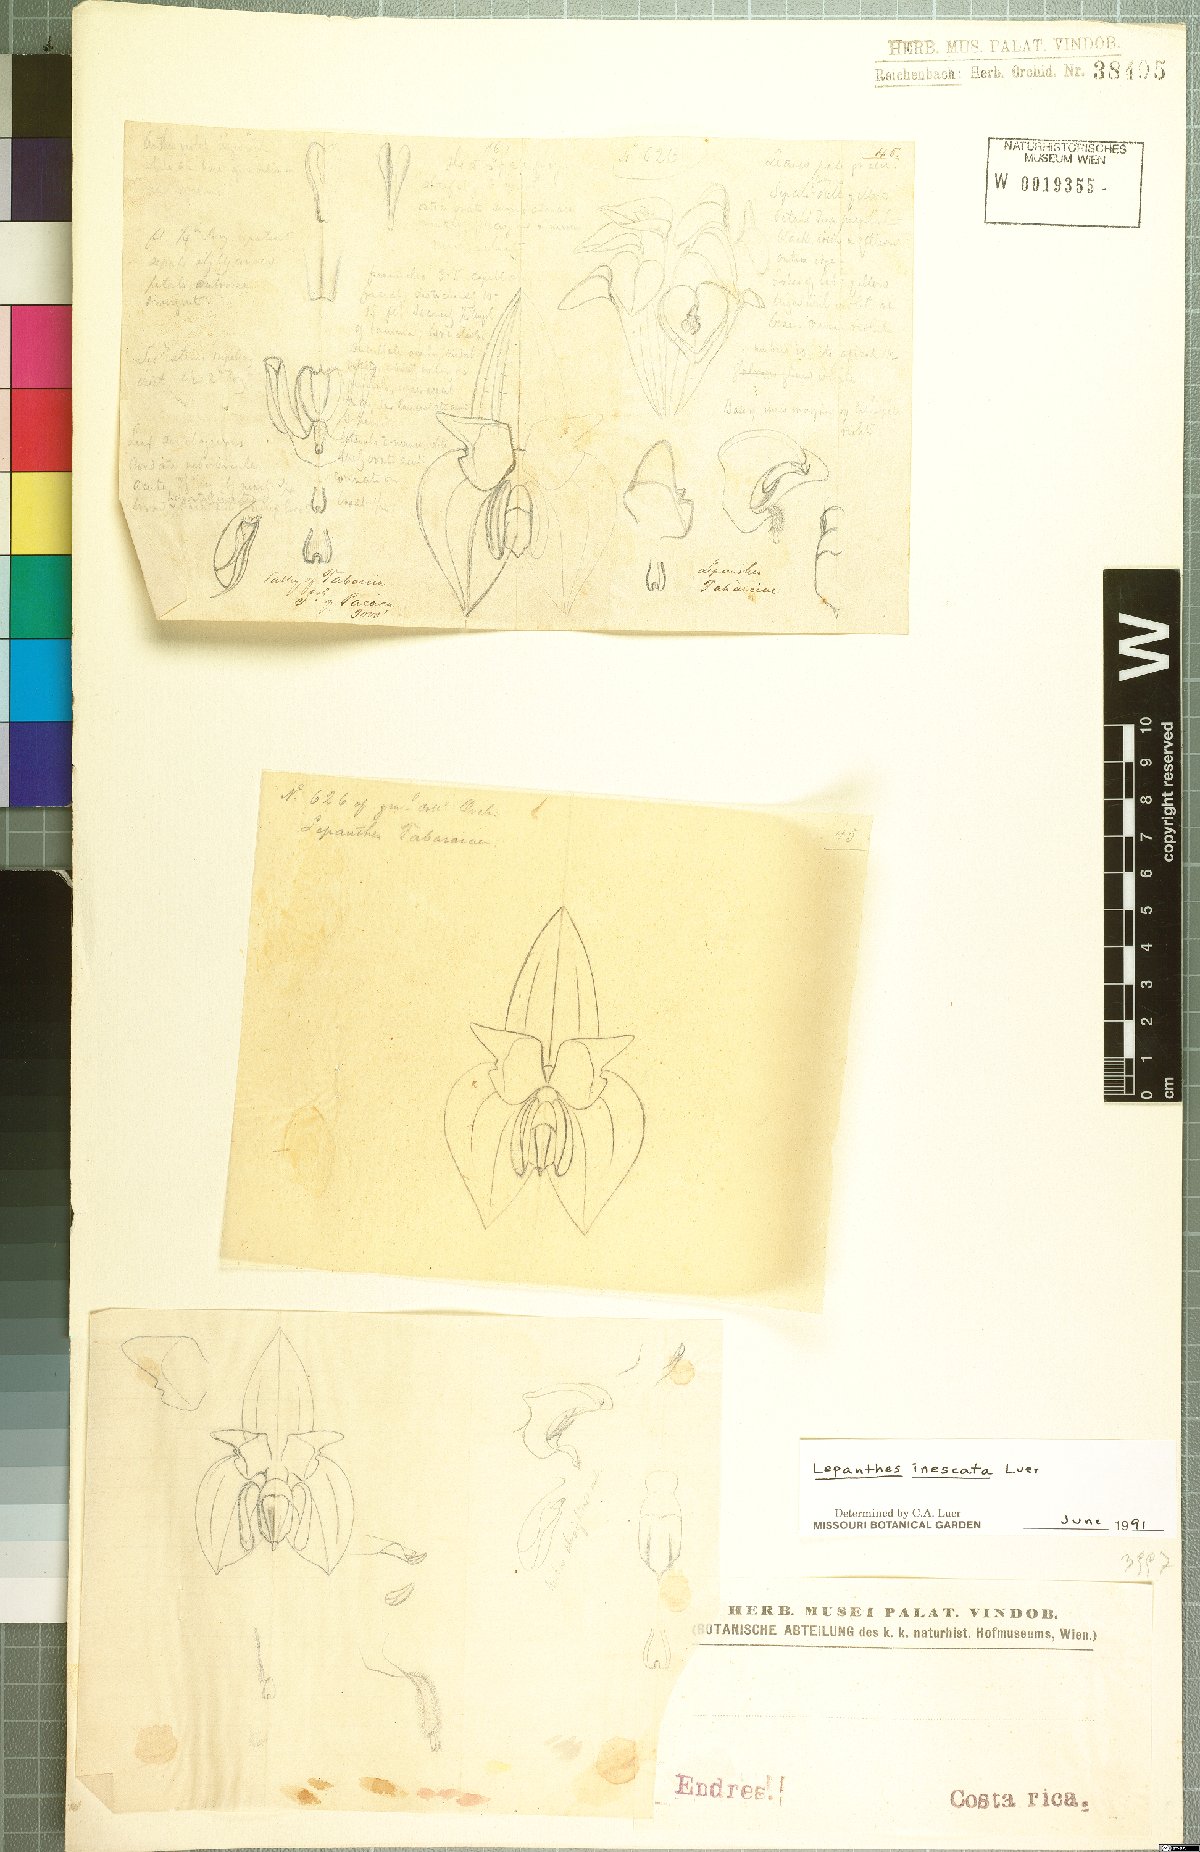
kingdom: Plantae
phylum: Tracheophyta
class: Liliopsida
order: Asparagales
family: Orchidaceae
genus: Lepanthes
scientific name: Lepanthes inescata
